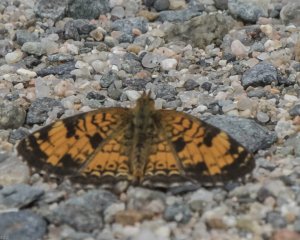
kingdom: Animalia
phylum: Arthropoda
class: Insecta
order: Lepidoptera
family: Nymphalidae
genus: Phyciodes
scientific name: Phyciodes tharos
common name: Northern Crescent
